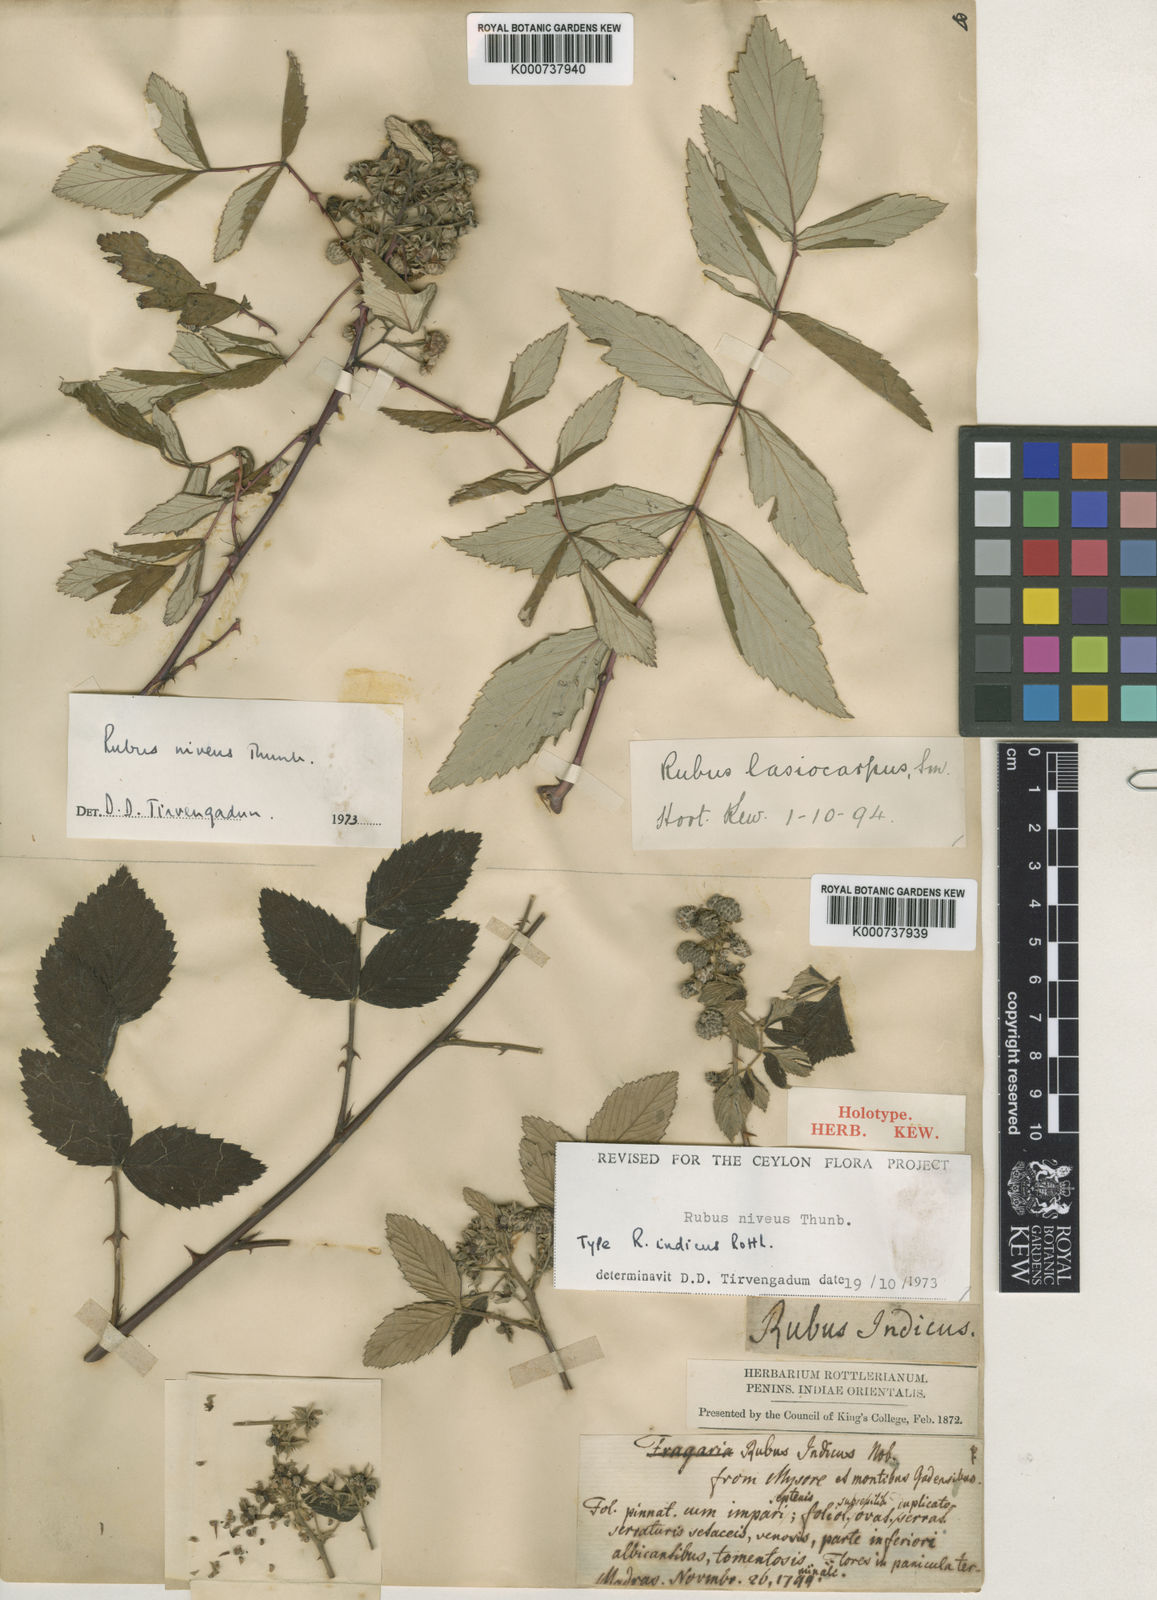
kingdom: Plantae
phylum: Tracheophyta
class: Magnoliopsida
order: Rosales
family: Rosaceae
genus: Rubus
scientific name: Rubus niveus
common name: Snowpeaks raspberry
